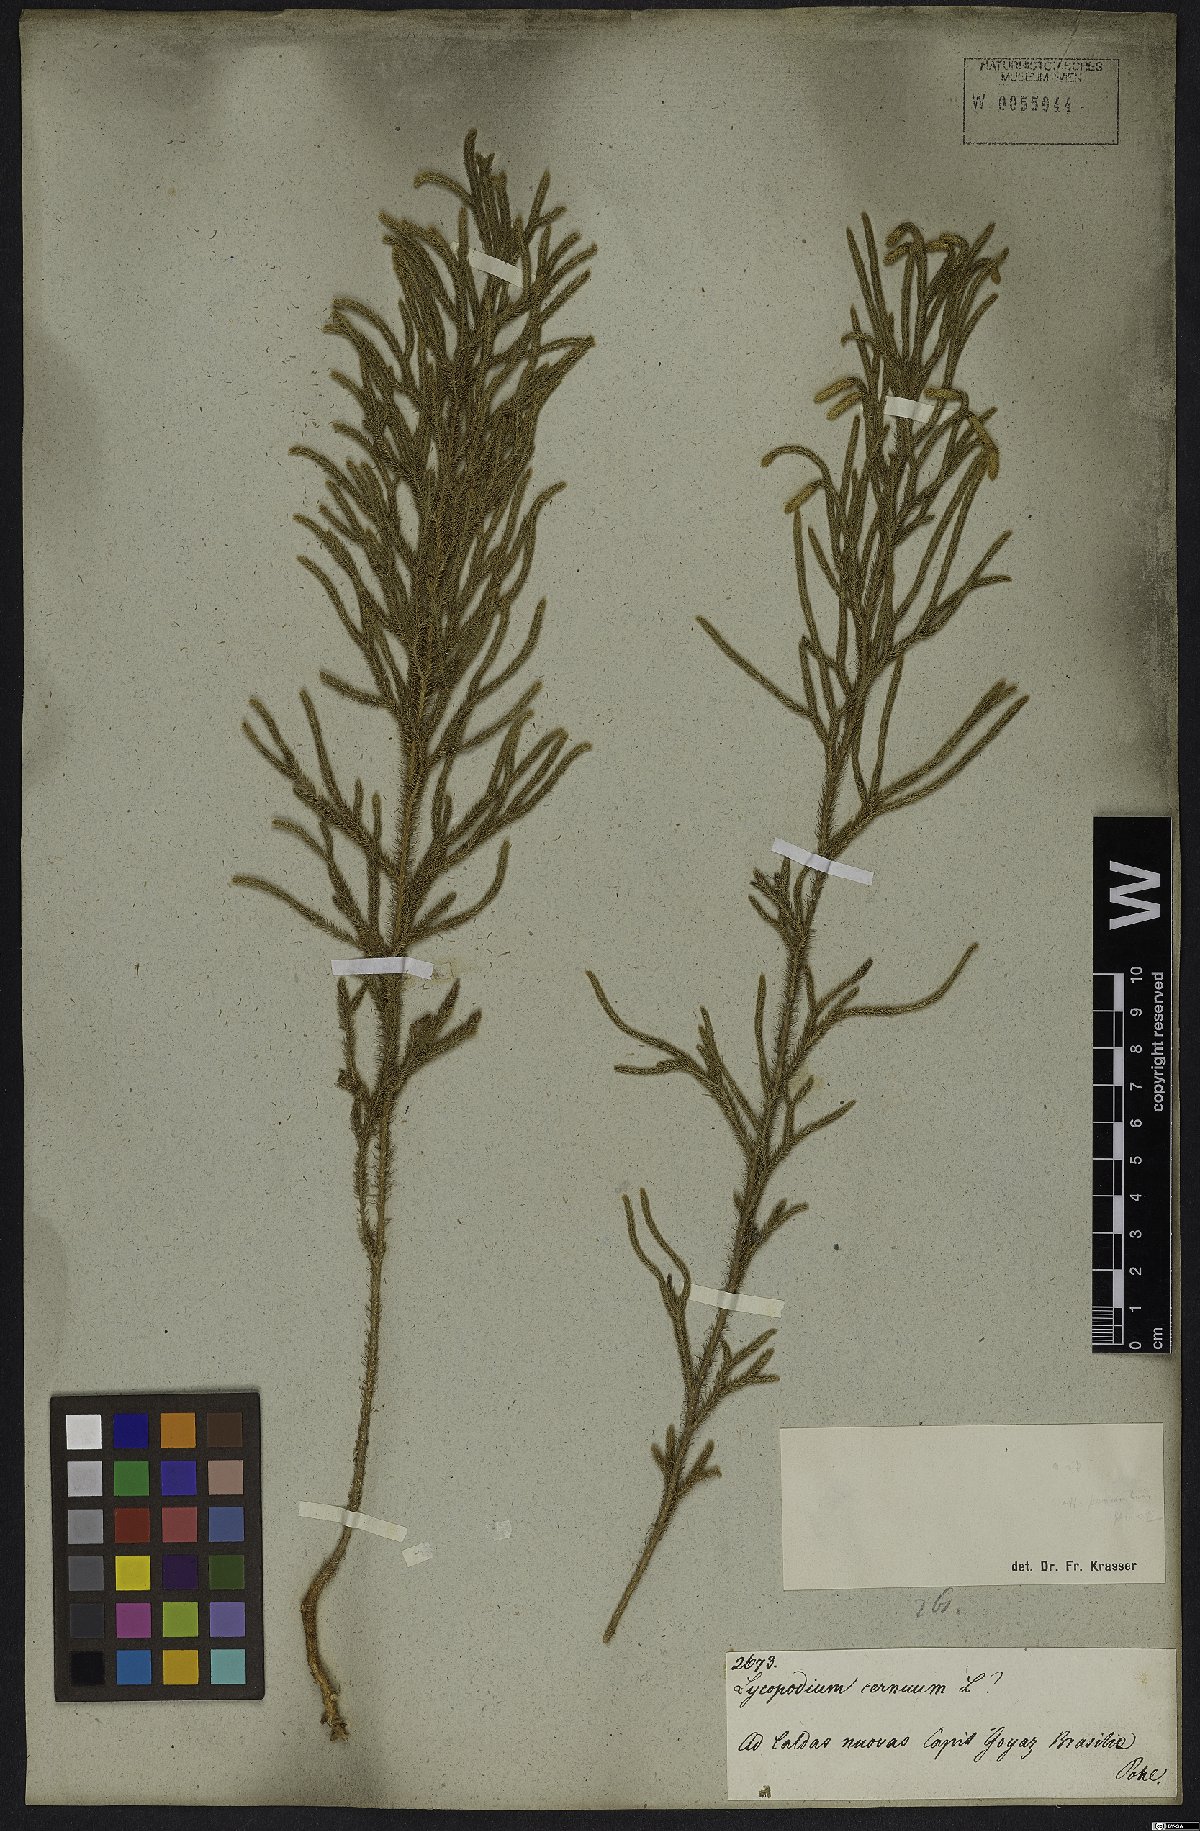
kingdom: Plantae
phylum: Tracheophyta
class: Lycopodiopsida
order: Lycopodiales
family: Lycopodiaceae
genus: Palhinhaea
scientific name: Palhinhaea cernua
